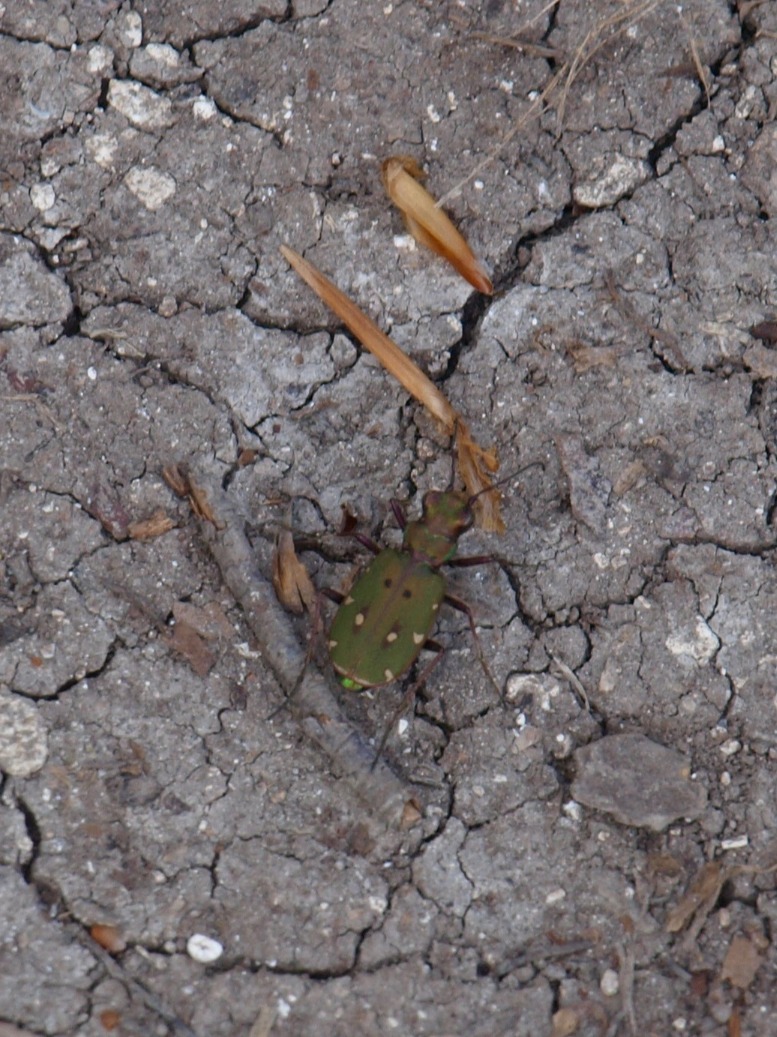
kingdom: Animalia
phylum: Arthropoda
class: Insecta
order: Coleoptera
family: Carabidae
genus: Cicindela
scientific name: Cicindela campestris
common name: Grøn sandspringer
